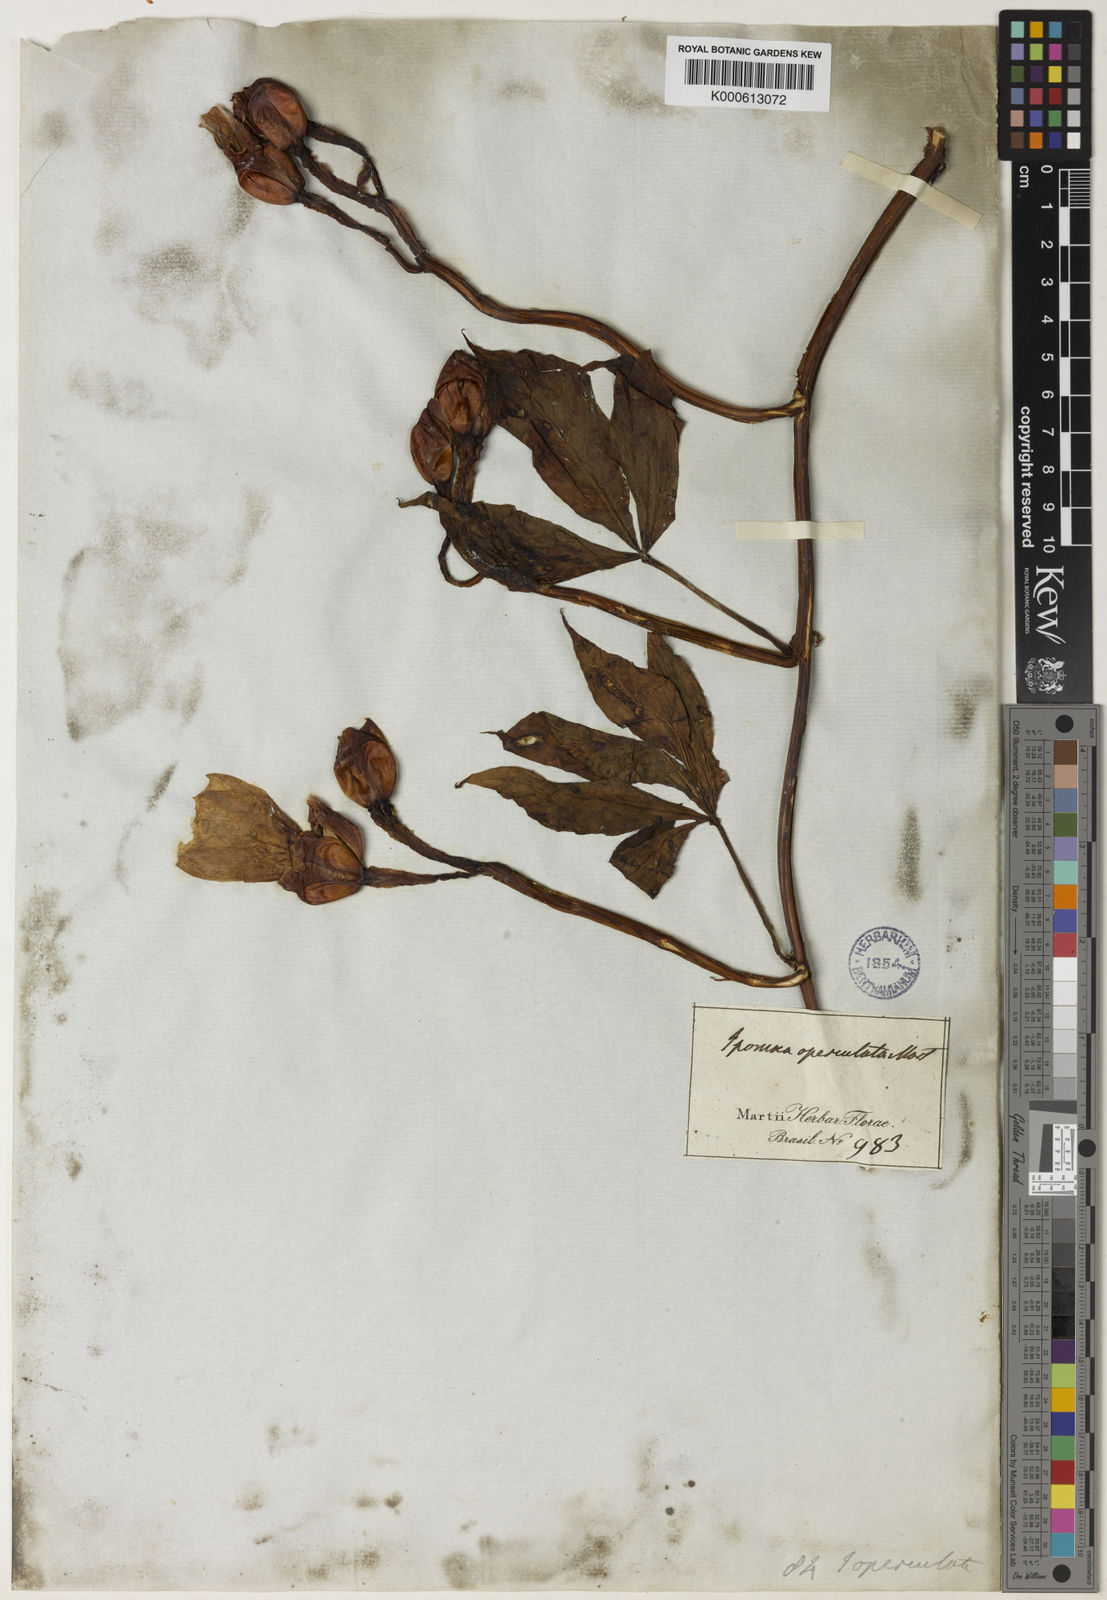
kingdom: Plantae
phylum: Tracheophyta
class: Magnoliopsida
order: Solanales
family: Convolvulaceae
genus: Operculina
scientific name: Operculina macrocarpa
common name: Brazilian jalap
